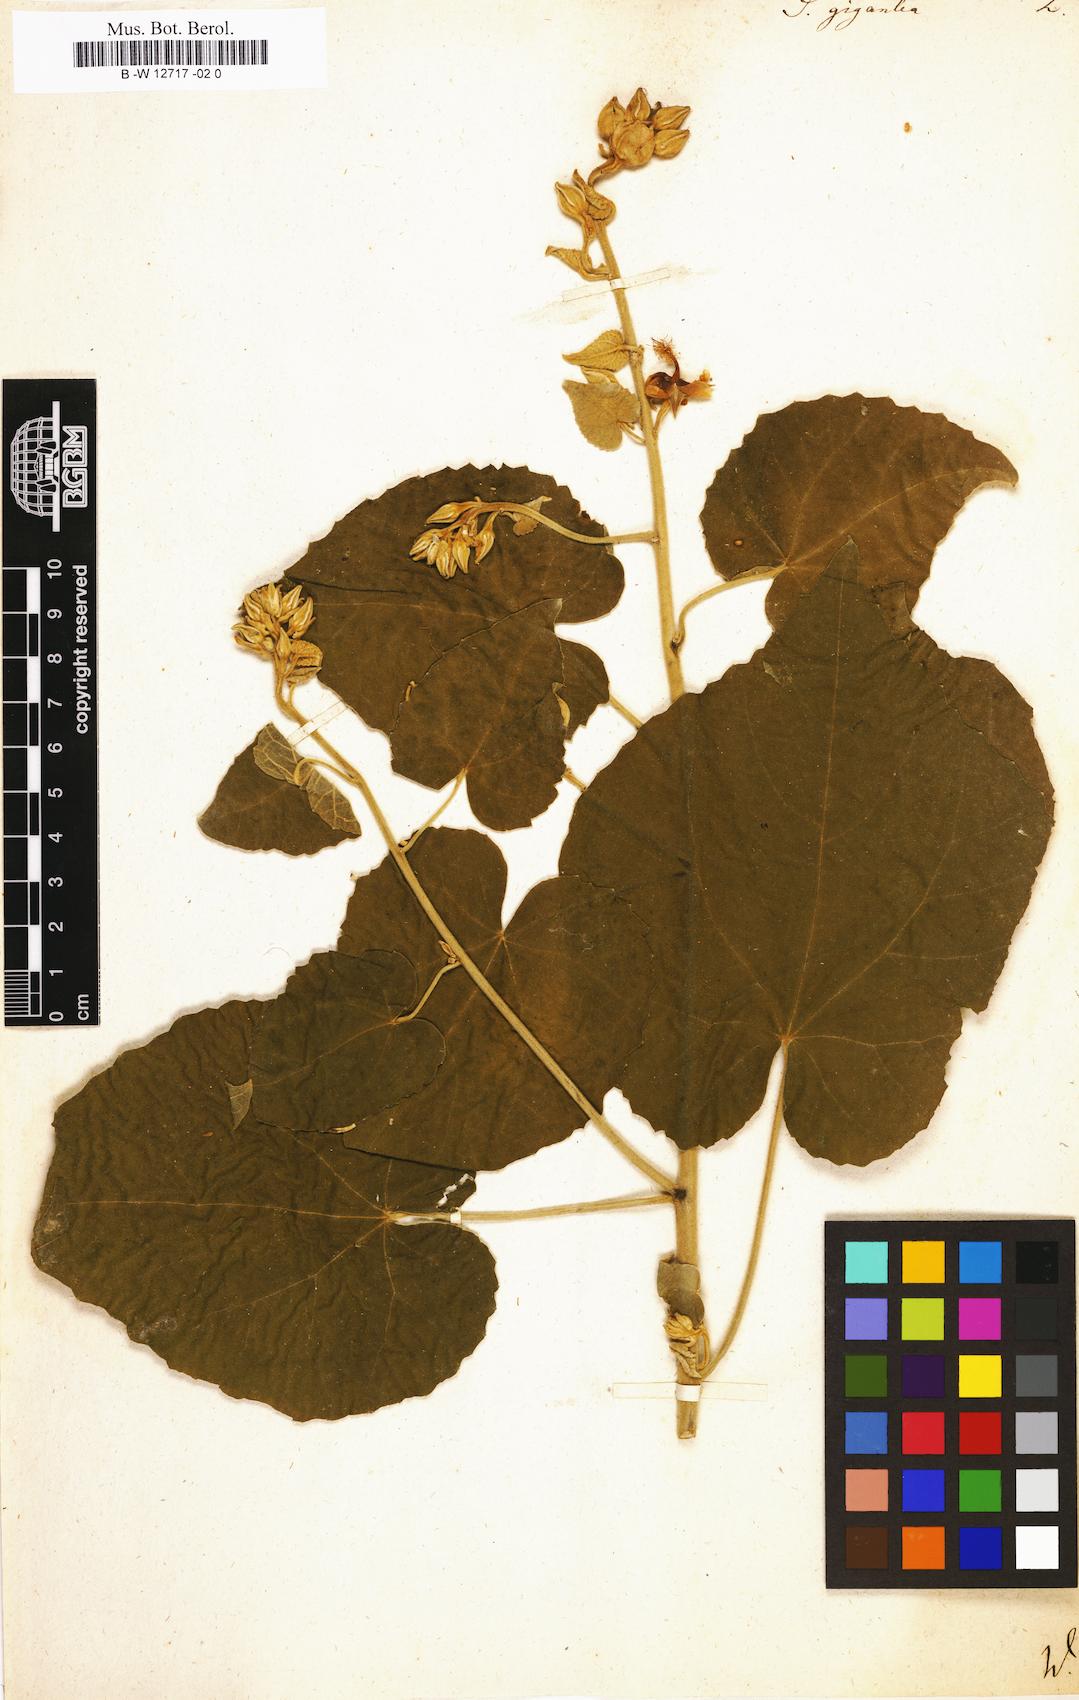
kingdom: Plantae
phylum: Tracheophyta
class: Magnoliopsida
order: Malvales
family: Malvaceae
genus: Abutilon
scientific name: Abutilon giganteum
